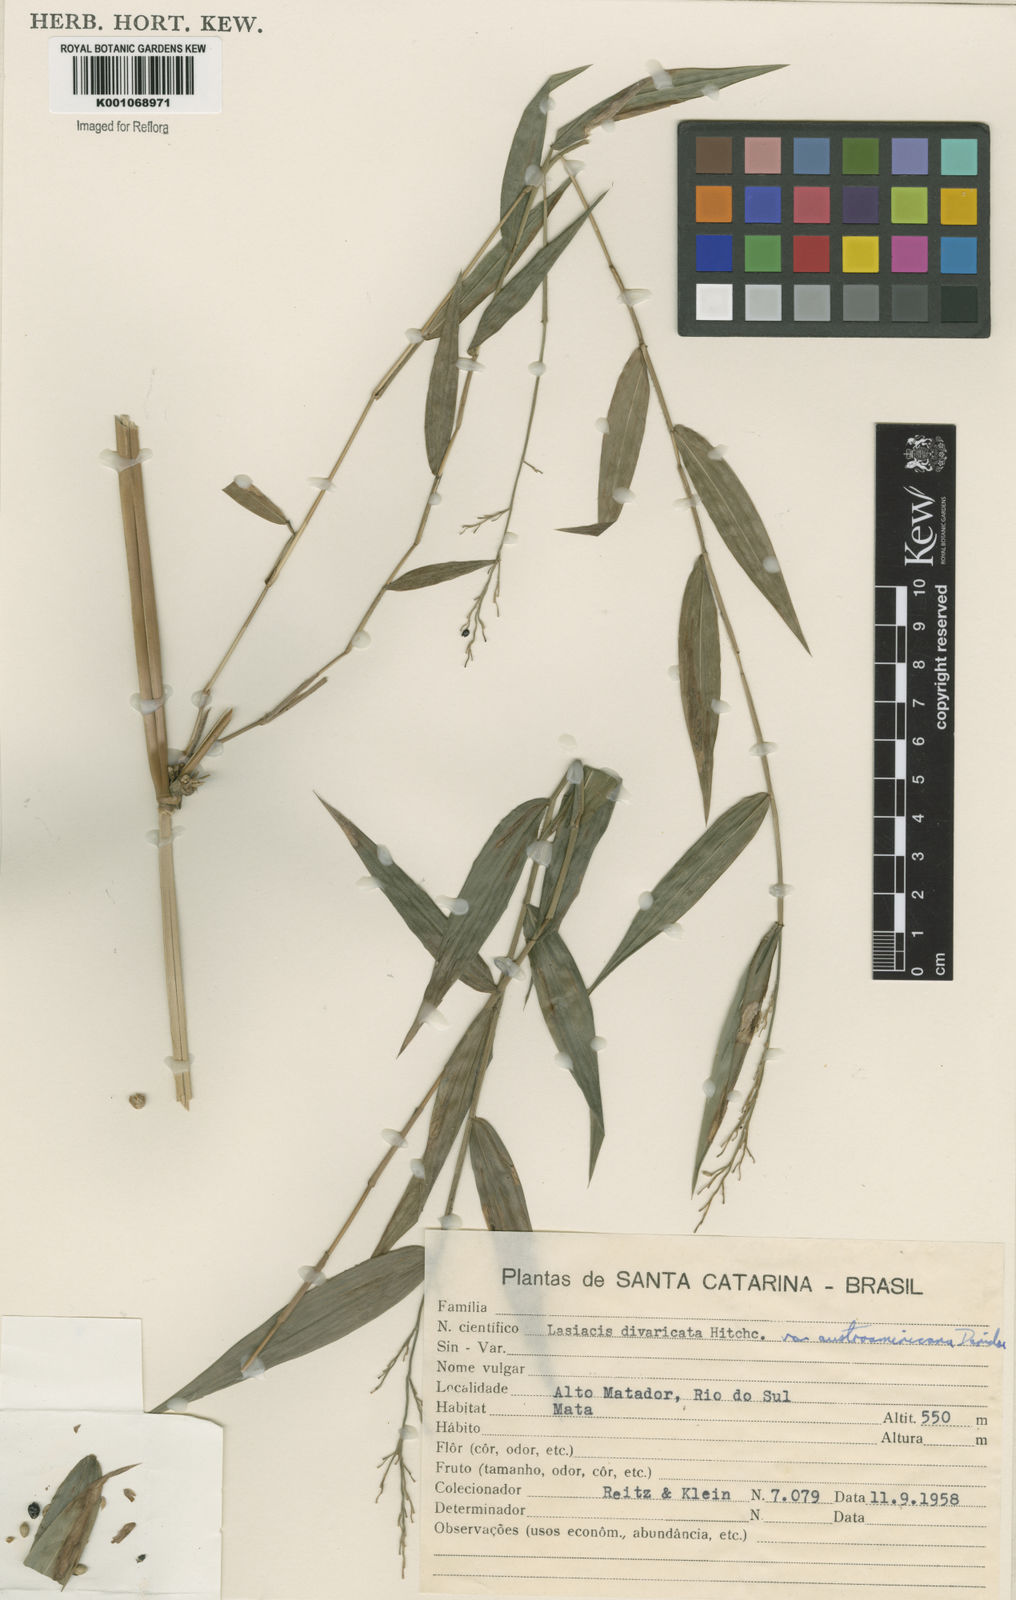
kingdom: Plantae
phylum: Tracheophyta
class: Liliopsida
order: Poales
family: Poaceae
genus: Lasiacis
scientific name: Lasiacis divaricata
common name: Smallcane
